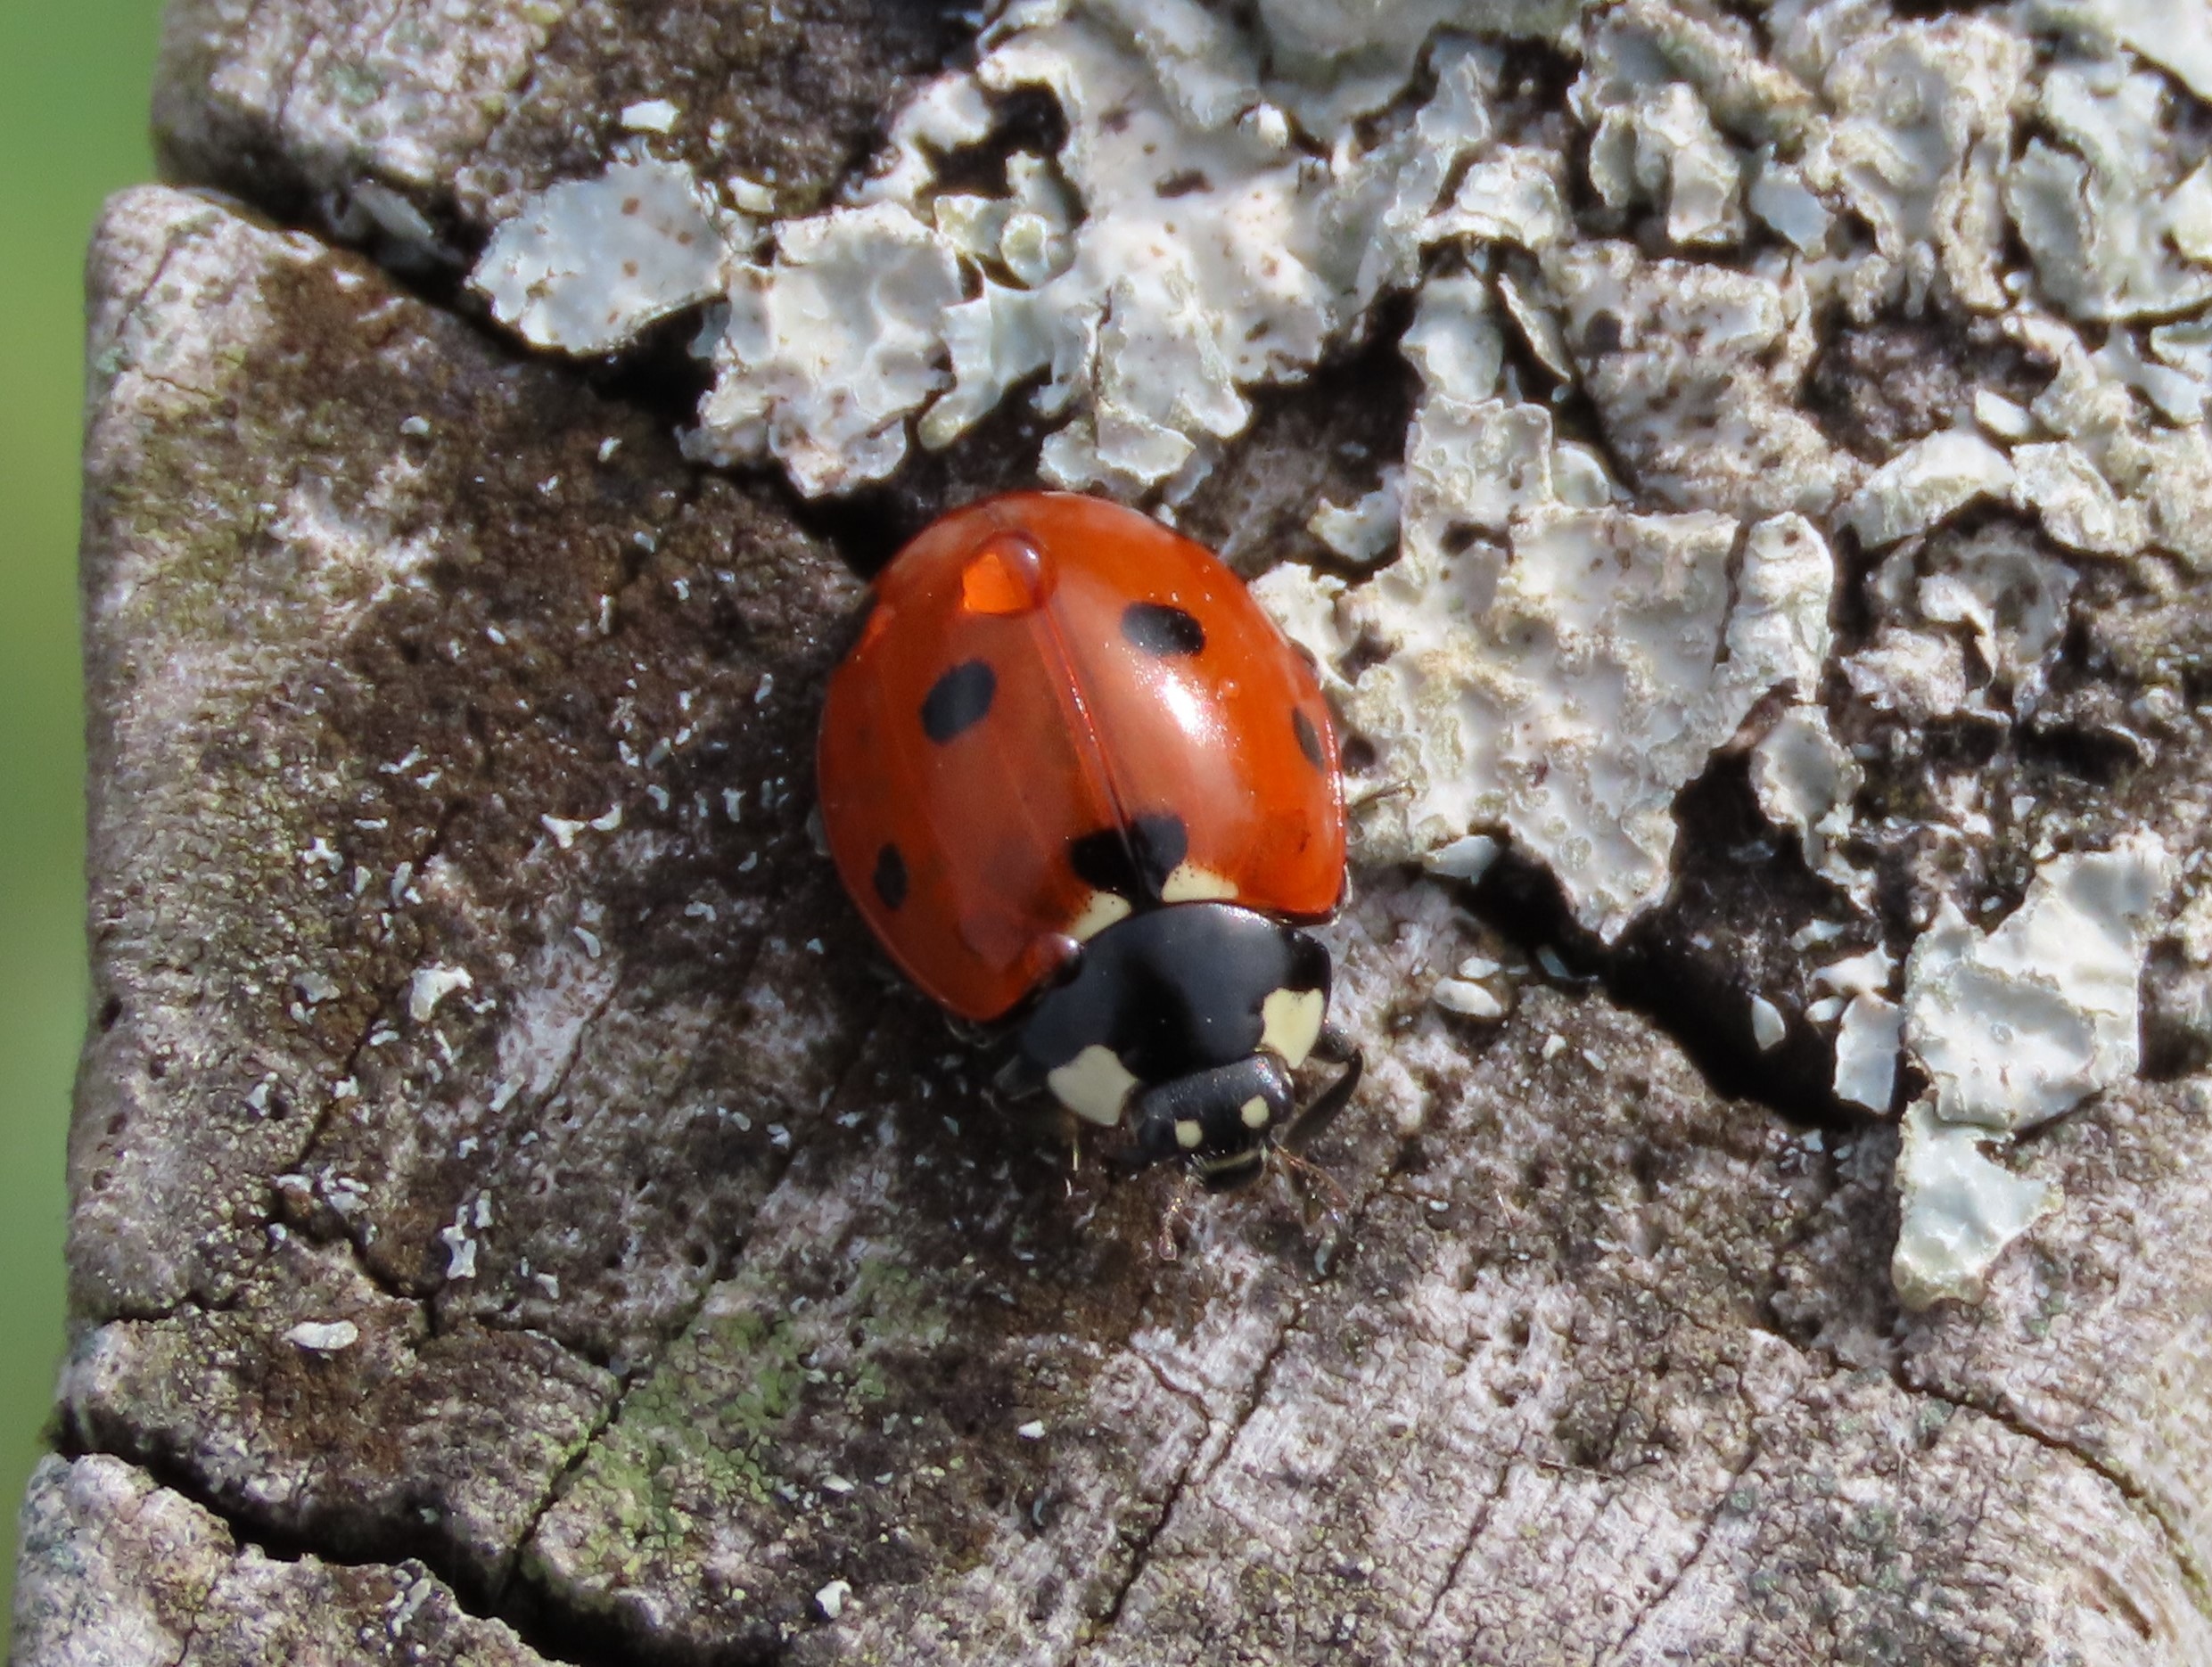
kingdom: Animalia
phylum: Arthropoda
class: Insecta
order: Coleoptera
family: Coccinellidae
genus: Coccinella
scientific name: Coccinella septempunctata
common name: Syvplettet mariehøne
